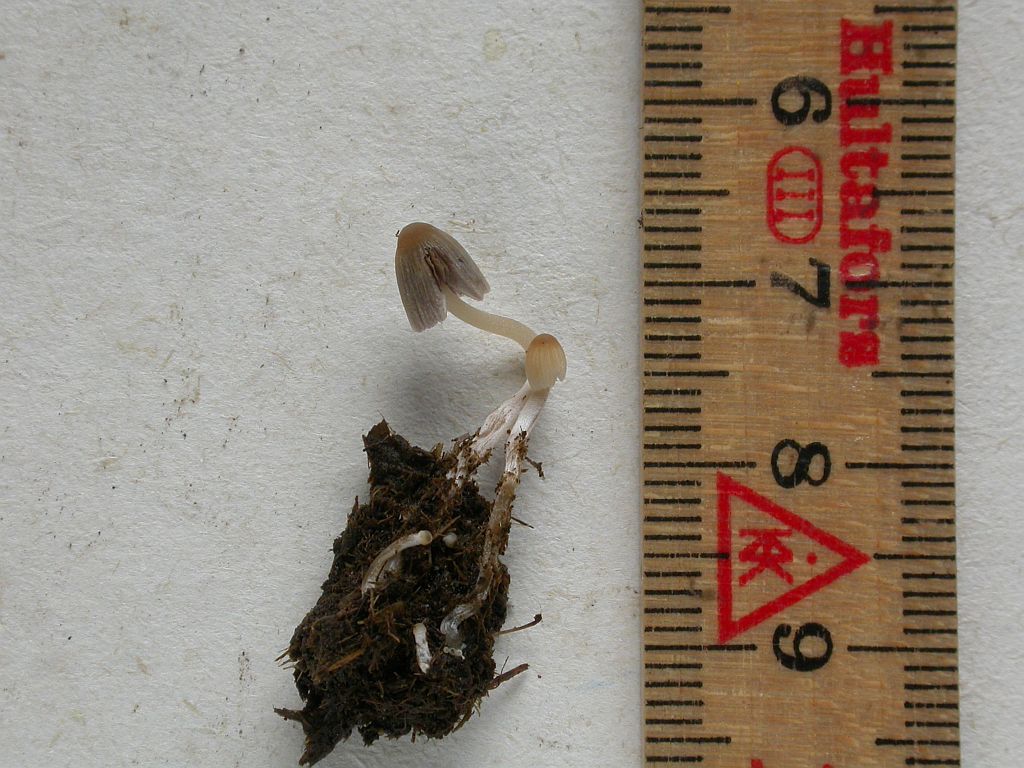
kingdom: Fungi
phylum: Basidiomycota
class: Agaricomycetes
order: Agaricales
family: Psathyrellaceae
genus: Tulosesus
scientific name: Tulosesus brevisetulosus
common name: korthåret blækhat
